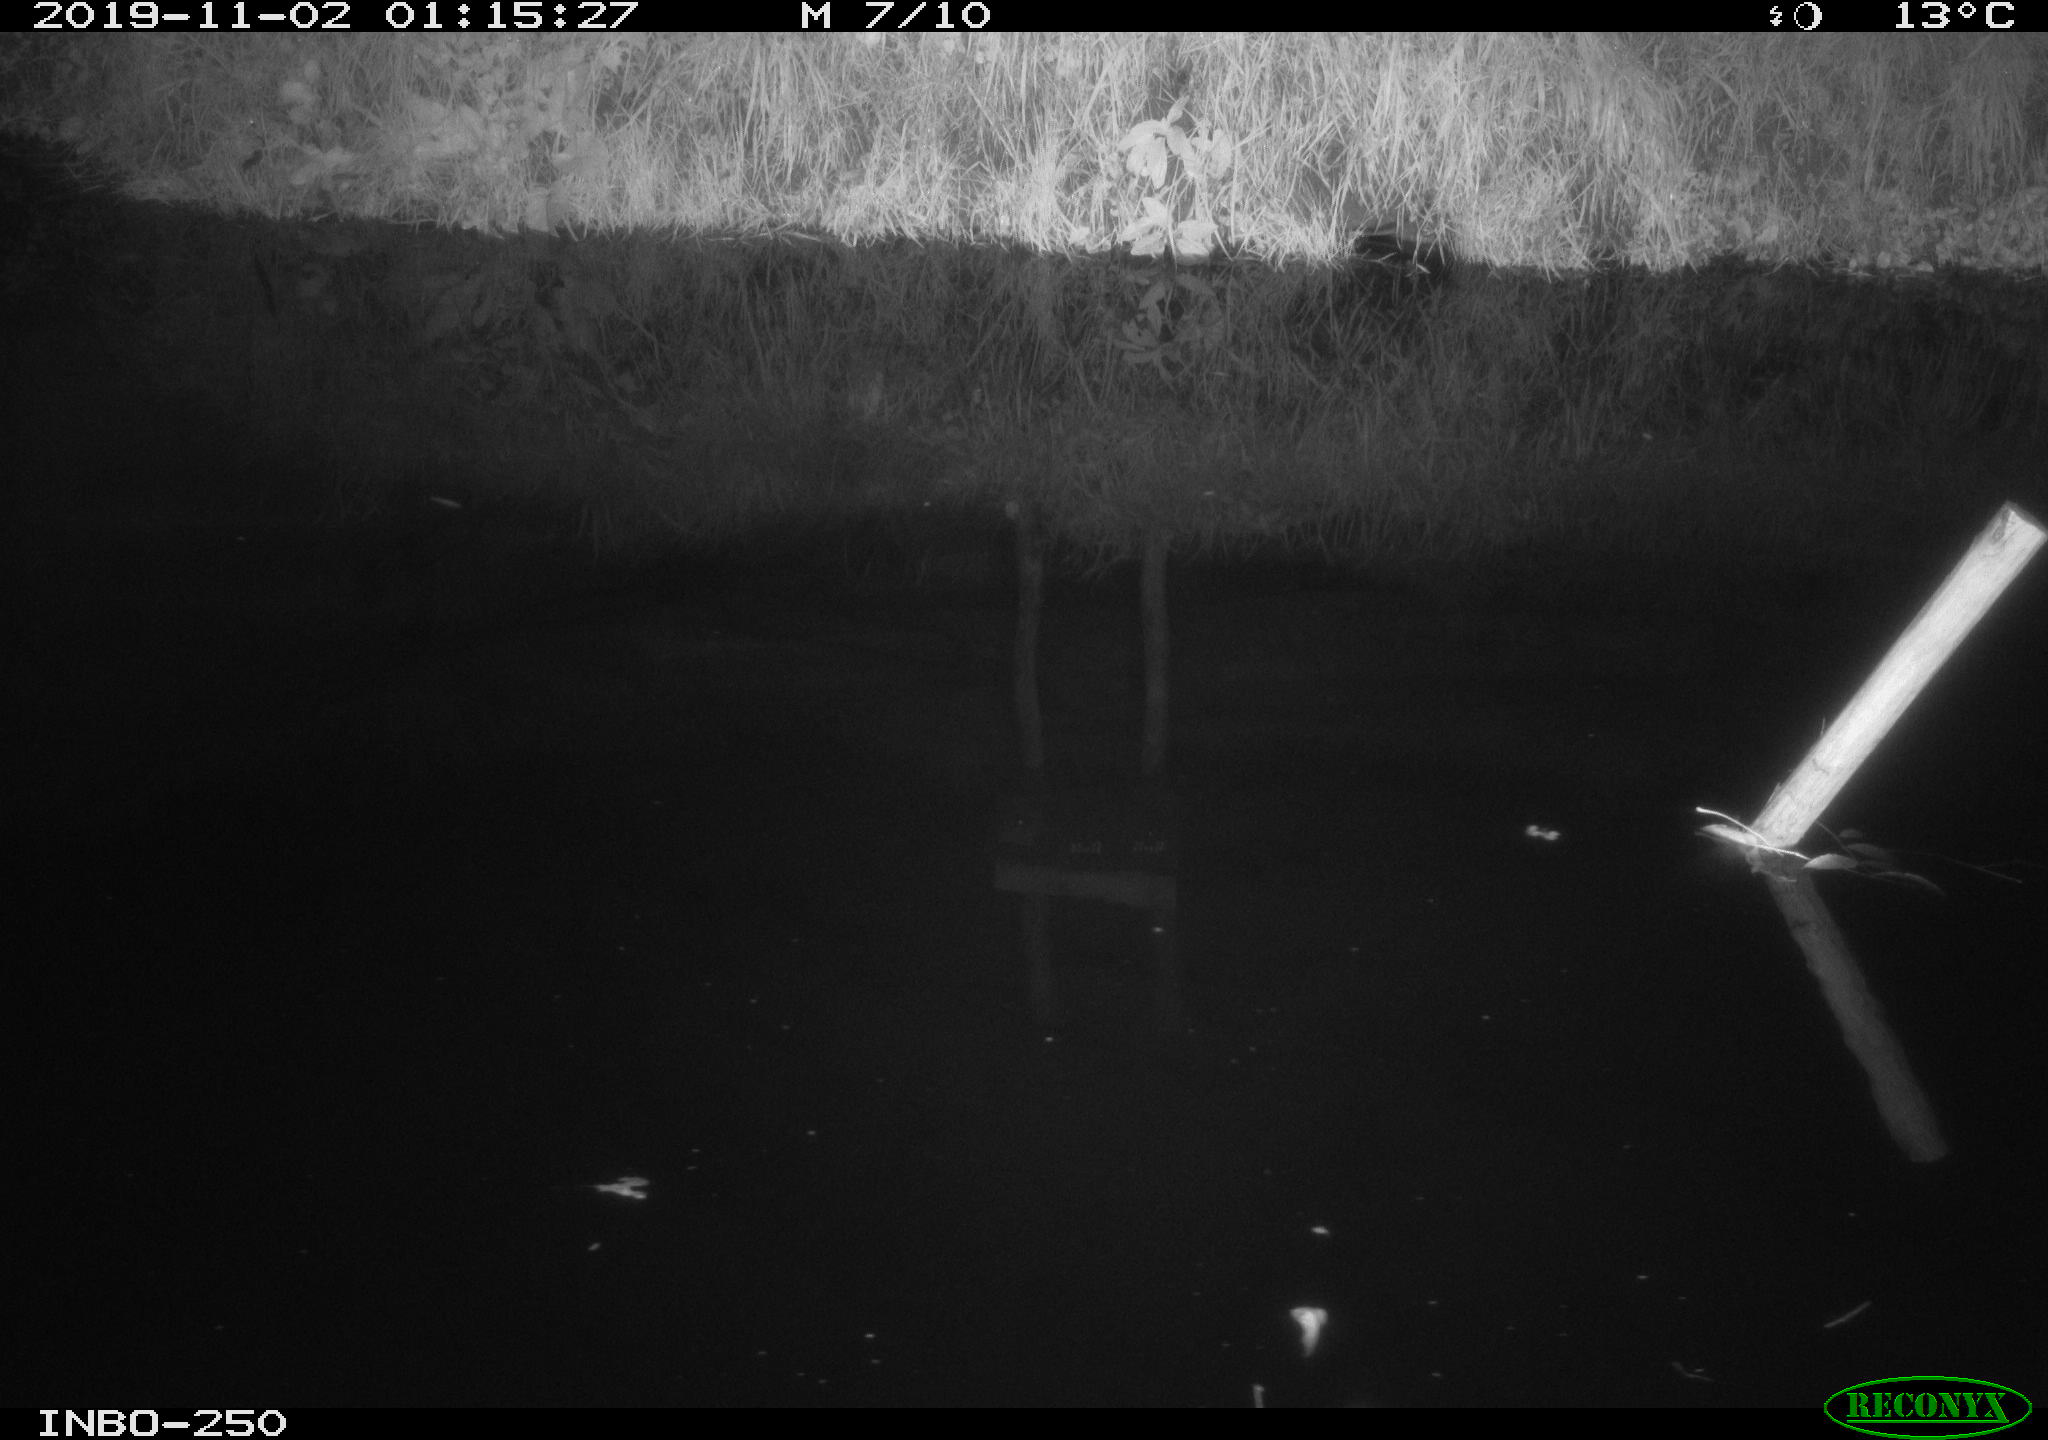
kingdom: Animalia
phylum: Chordata
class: Aves
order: Anseriformes
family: Anatidae
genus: Anas
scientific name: Anas platyrhynchos
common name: Mallard
